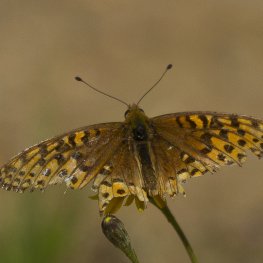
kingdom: Animalia
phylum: Arthropoda
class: Insecta
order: Lepidoptera
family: Nymphalidae
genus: Speyeria
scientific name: Speyeria atlantis
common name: Atlantis Fritillary
